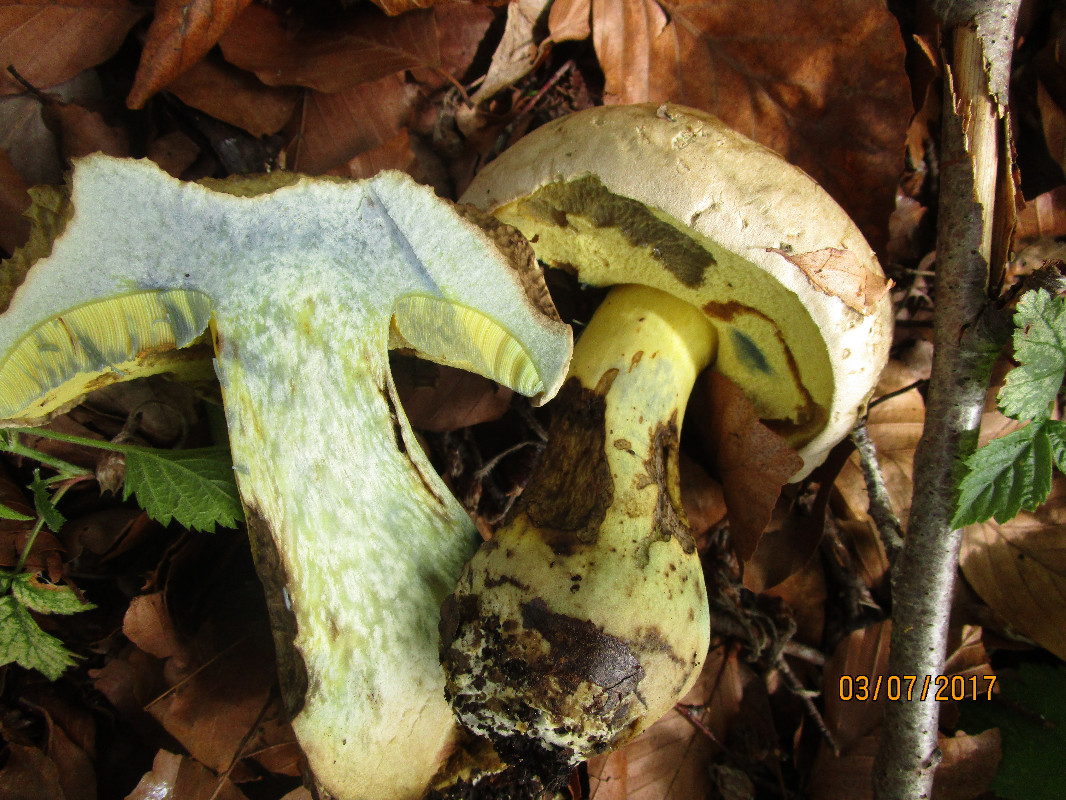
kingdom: Fungi
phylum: Basidiomycota
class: Agaricomycetes
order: Boletales
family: Boletaceae
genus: Caloboletus
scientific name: Caloboletus radicans
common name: rod-rørhat
